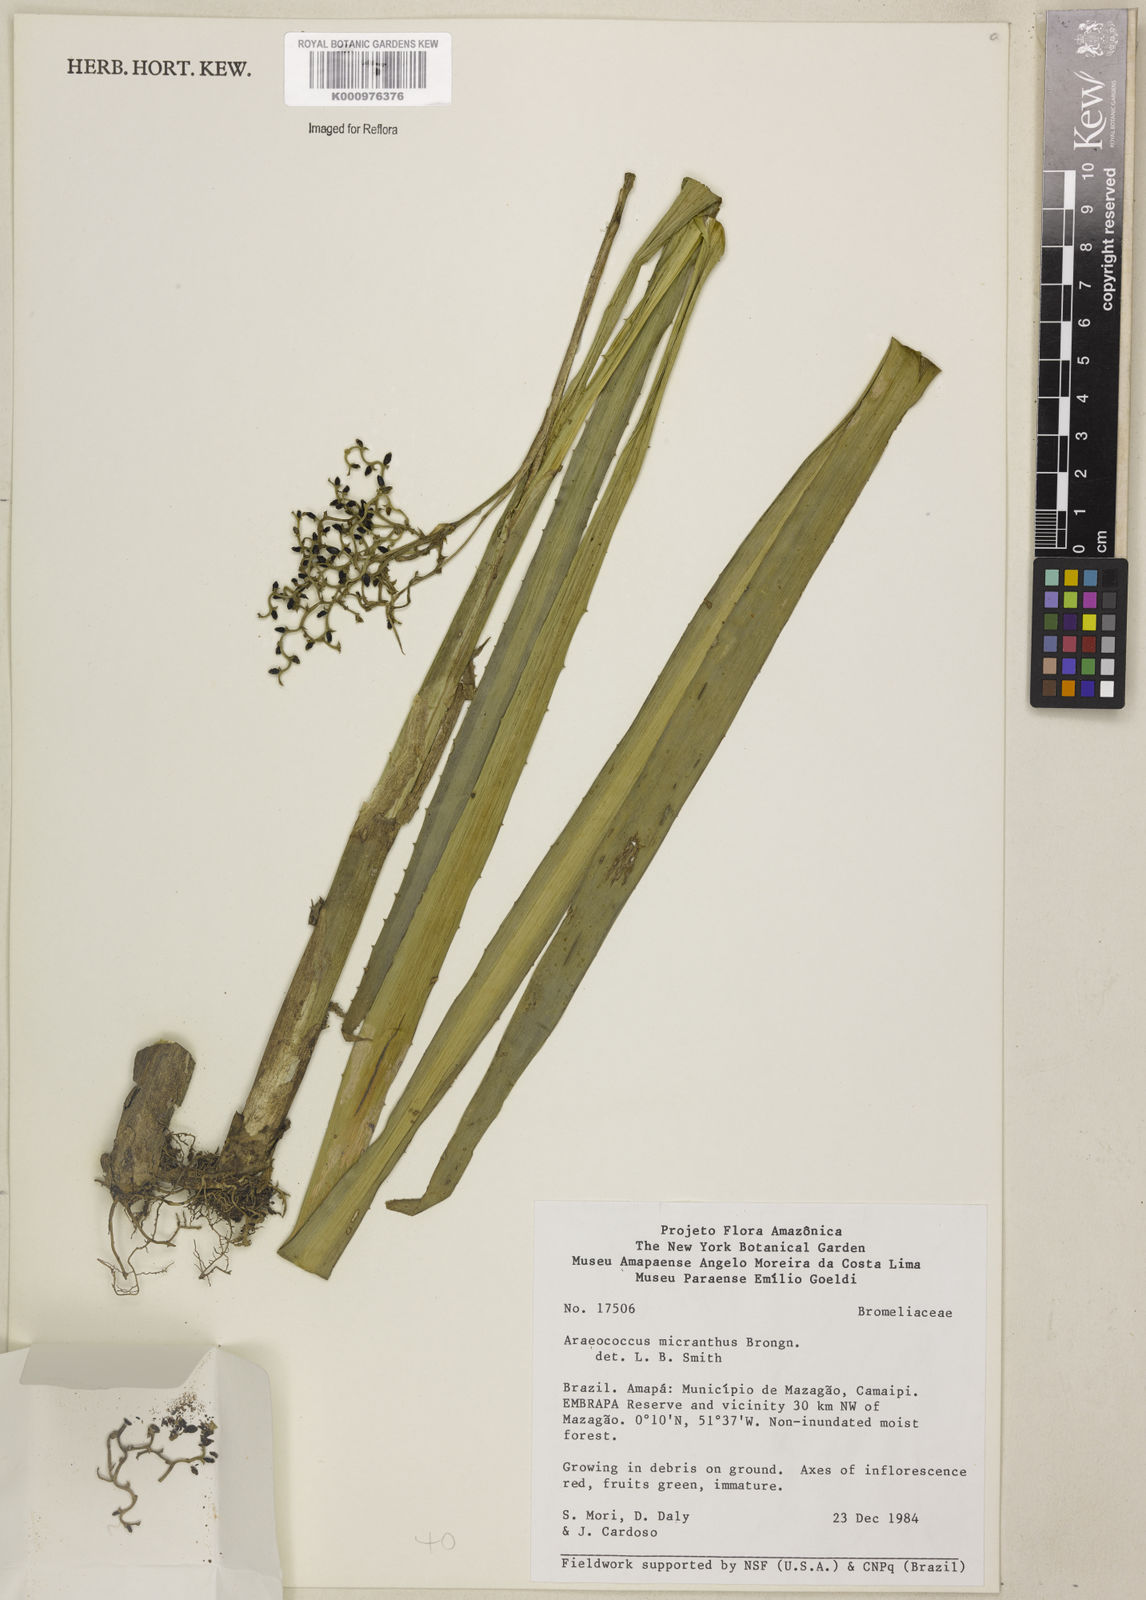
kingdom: Plantae
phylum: Tracheophyta
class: Liliopsida
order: Poales
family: Bromeliaceae
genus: Araeococcus
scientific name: Araeococcus micranthus
